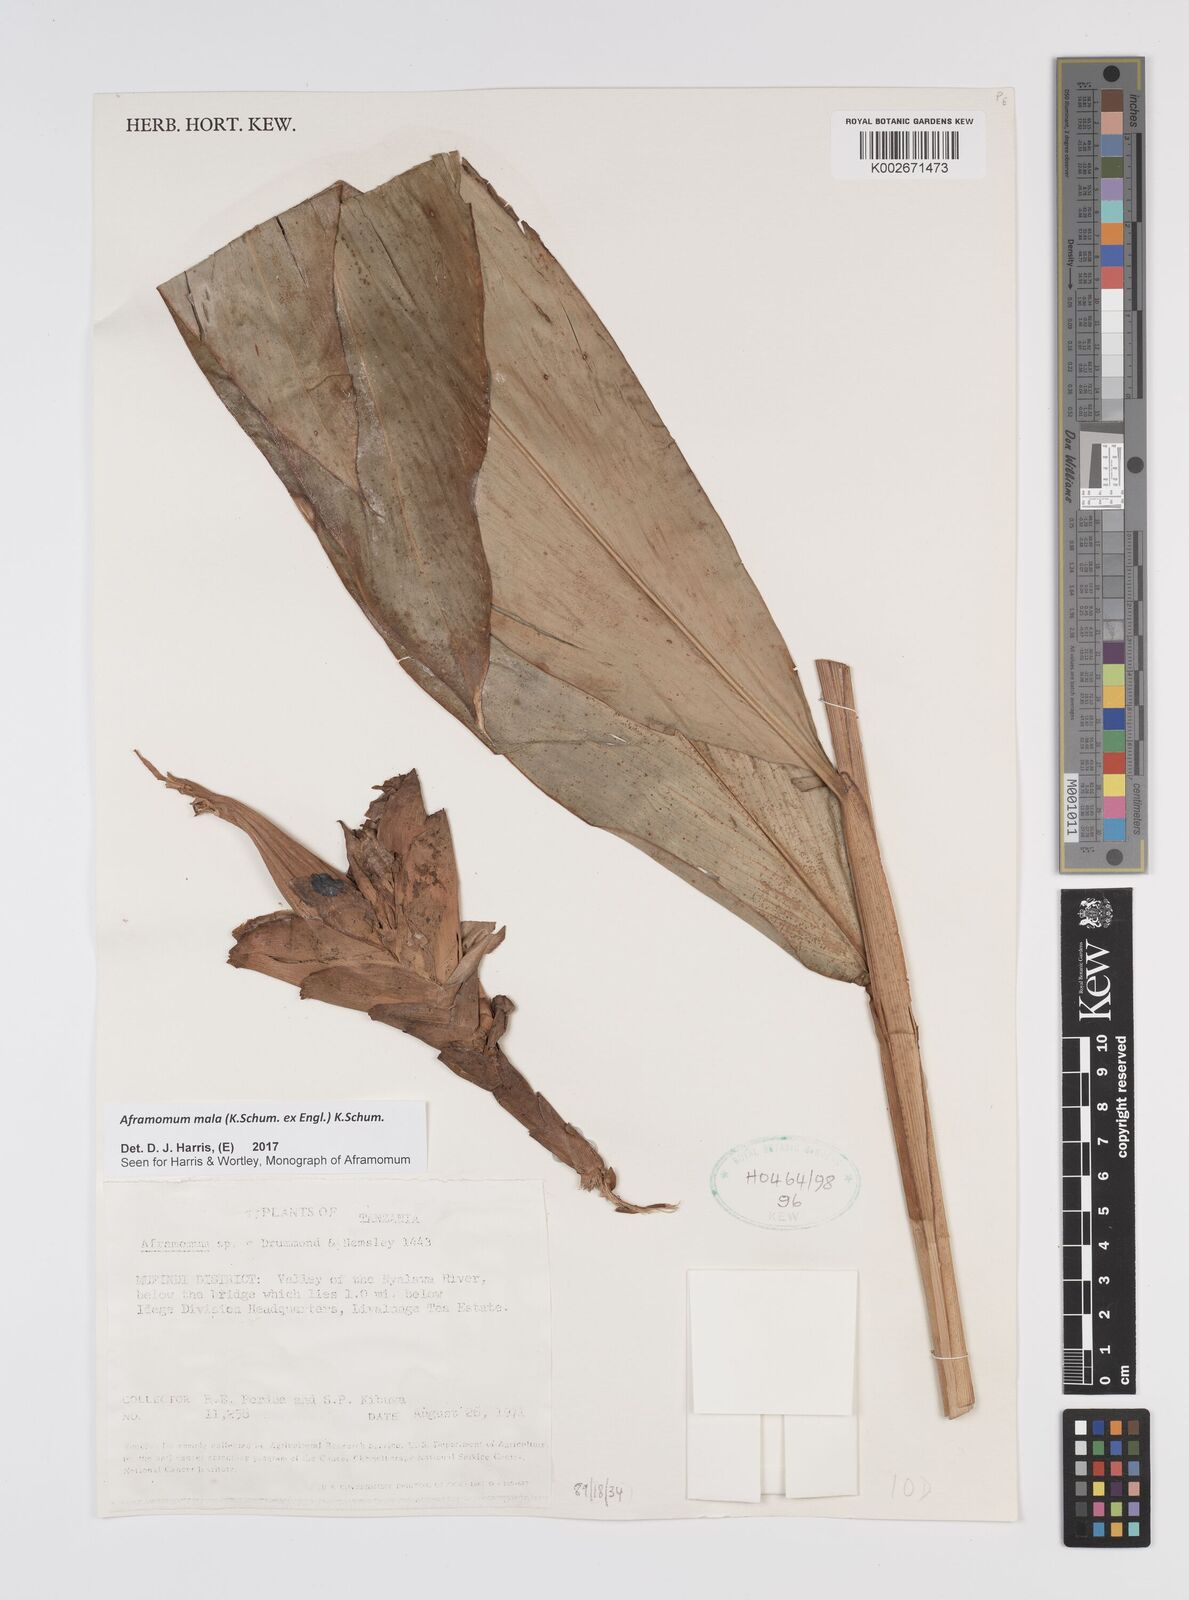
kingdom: Plantae
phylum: Tracheophyta
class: Liliopsida
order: Zingiberales
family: Zingiberaceae
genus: Aframomum
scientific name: Aframomum mala
